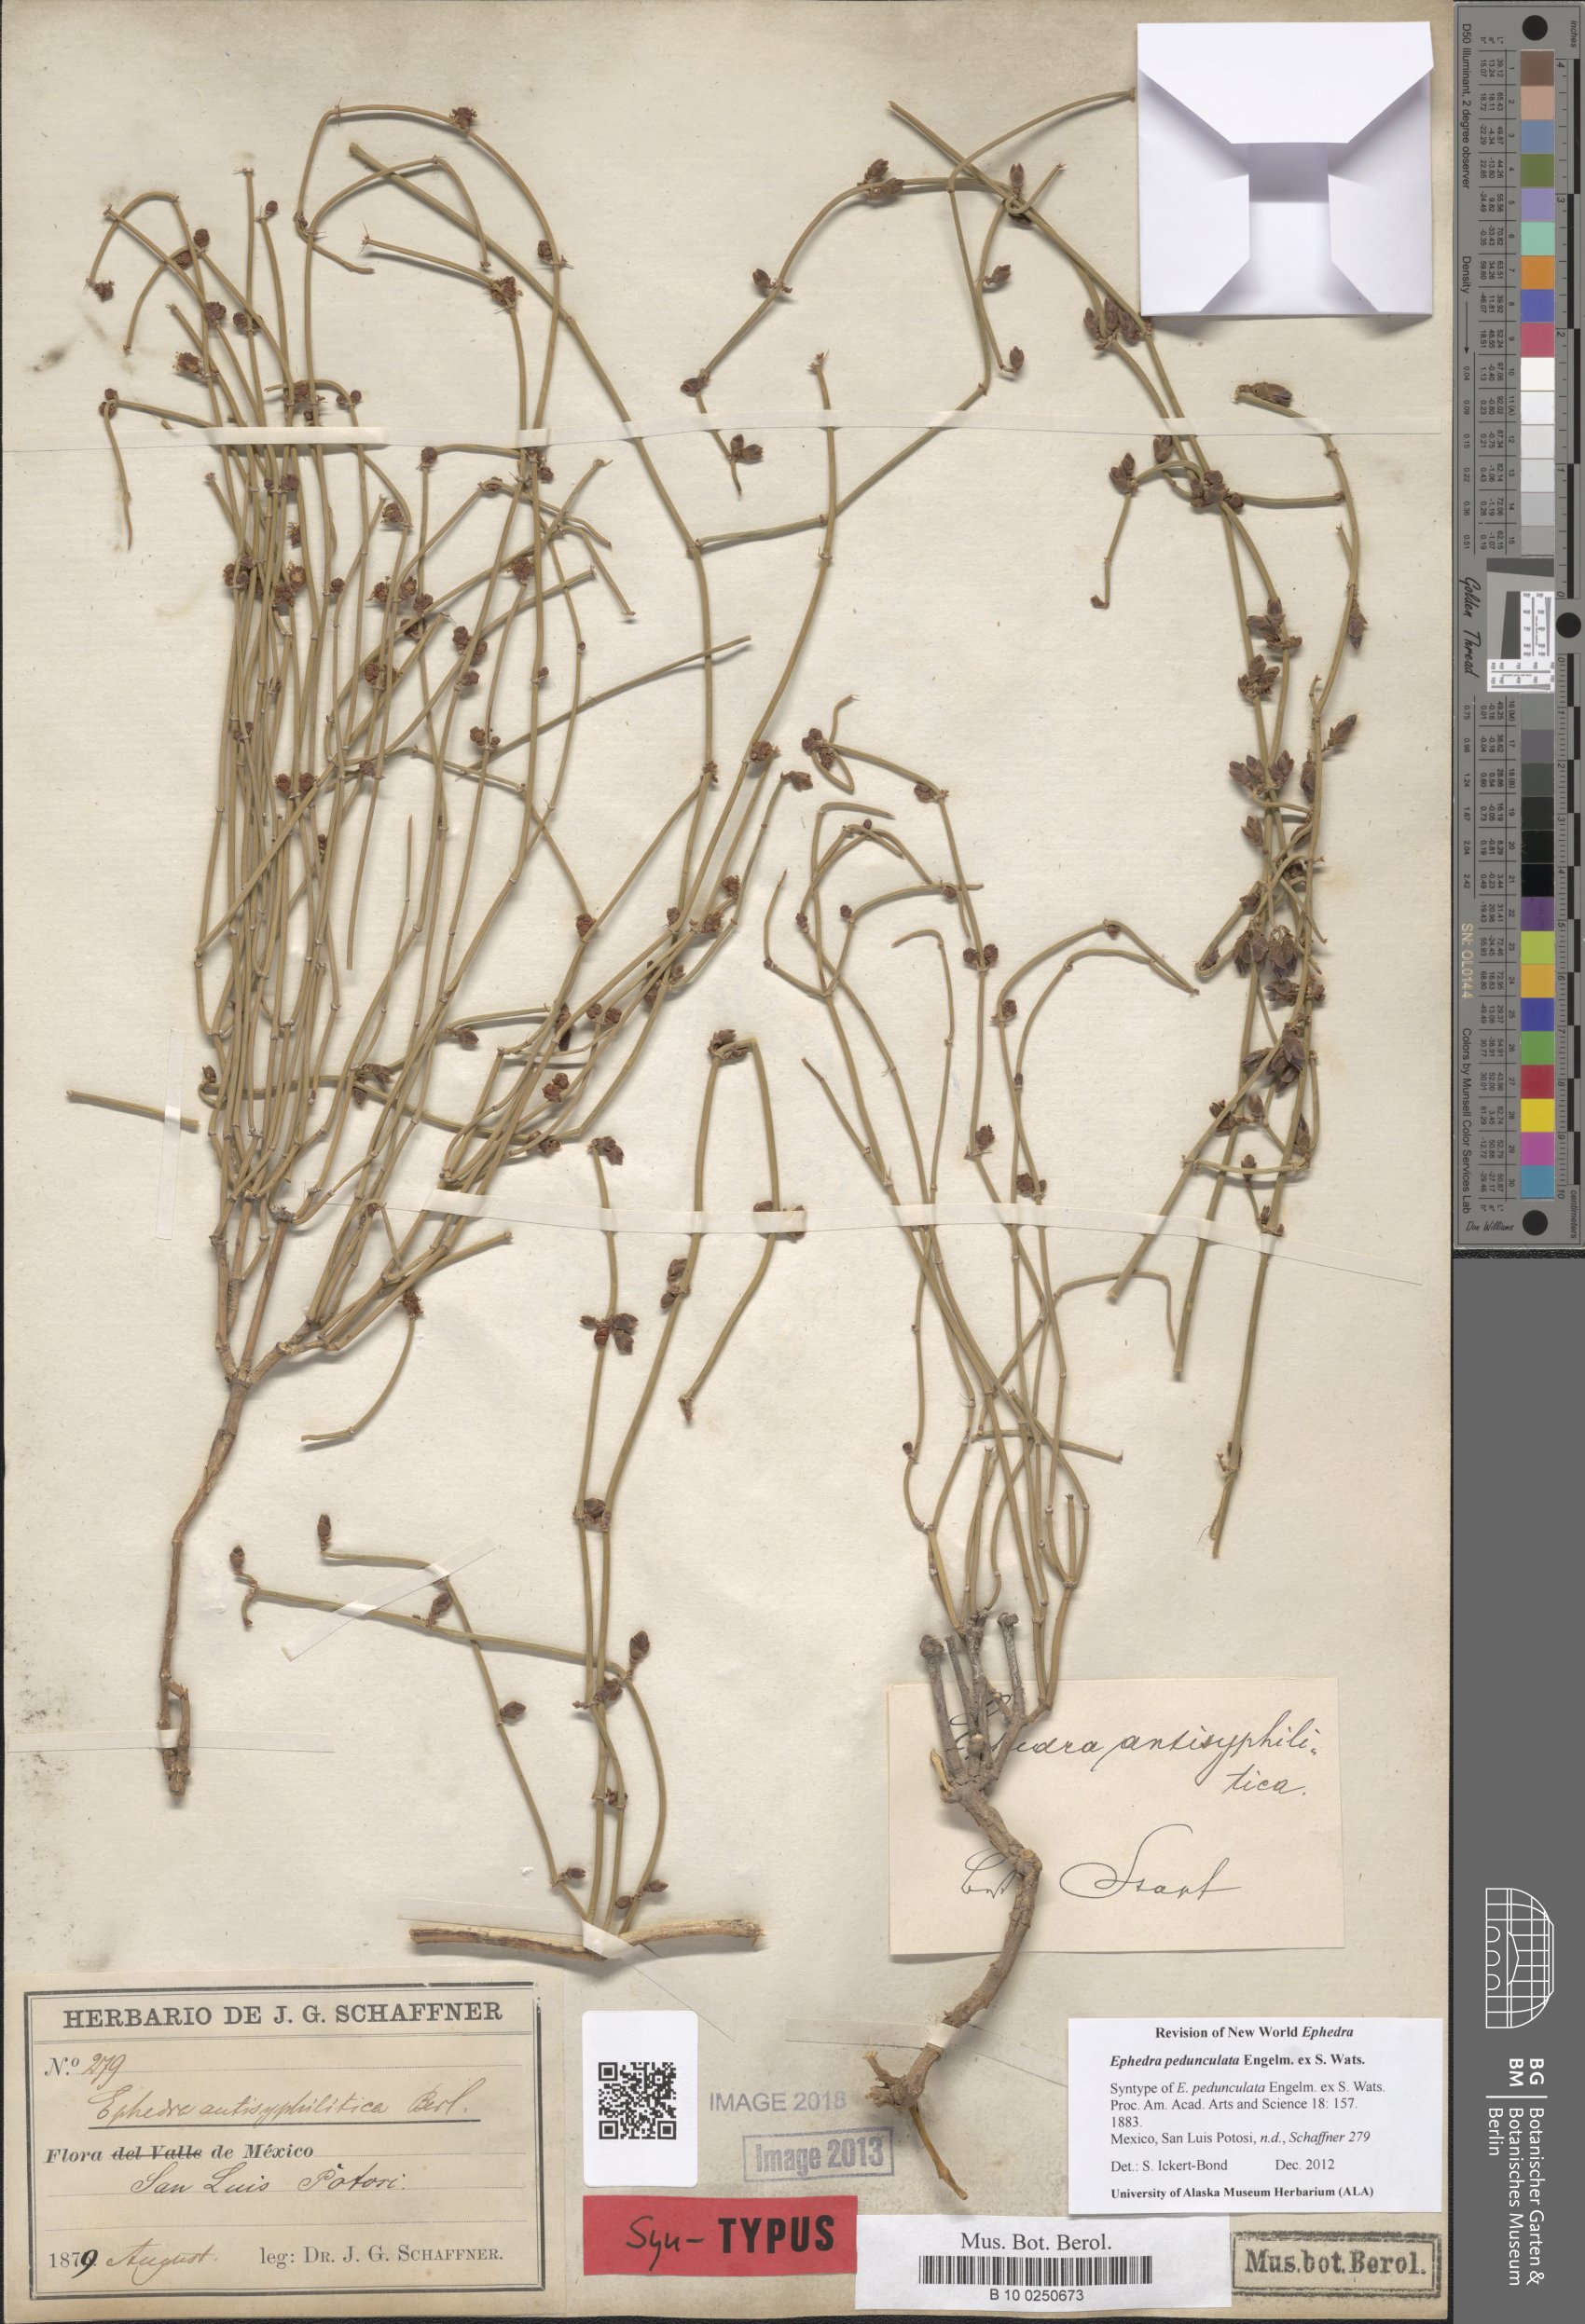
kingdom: Plantae
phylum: Tracheophyta
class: Gnetopsida
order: Ephedrales
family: Ephedraceae
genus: Ephedra
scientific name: Ephedra pedunculata
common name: Vine ephedra
